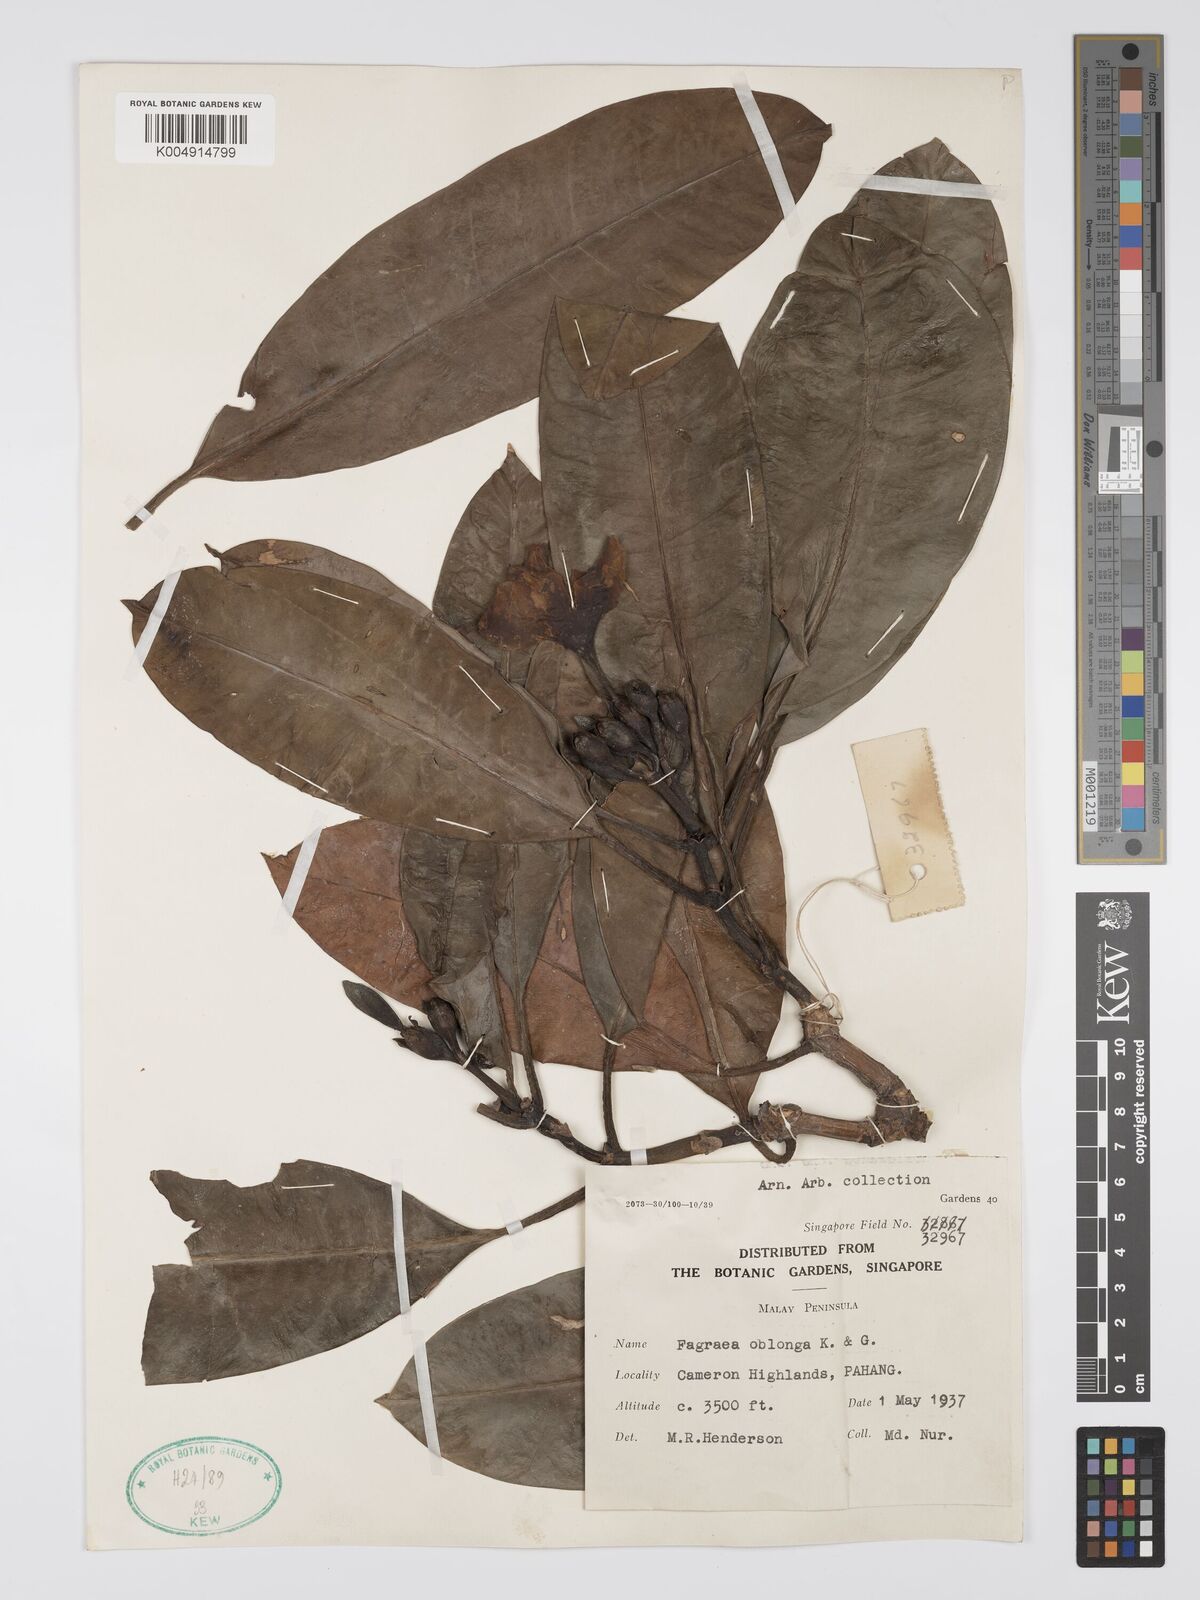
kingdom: Plantae
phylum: Tracheophyta
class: Magnoliopsida
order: Gentianales
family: Gentianaceae
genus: Fagraea
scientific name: Fagraea oblonga
